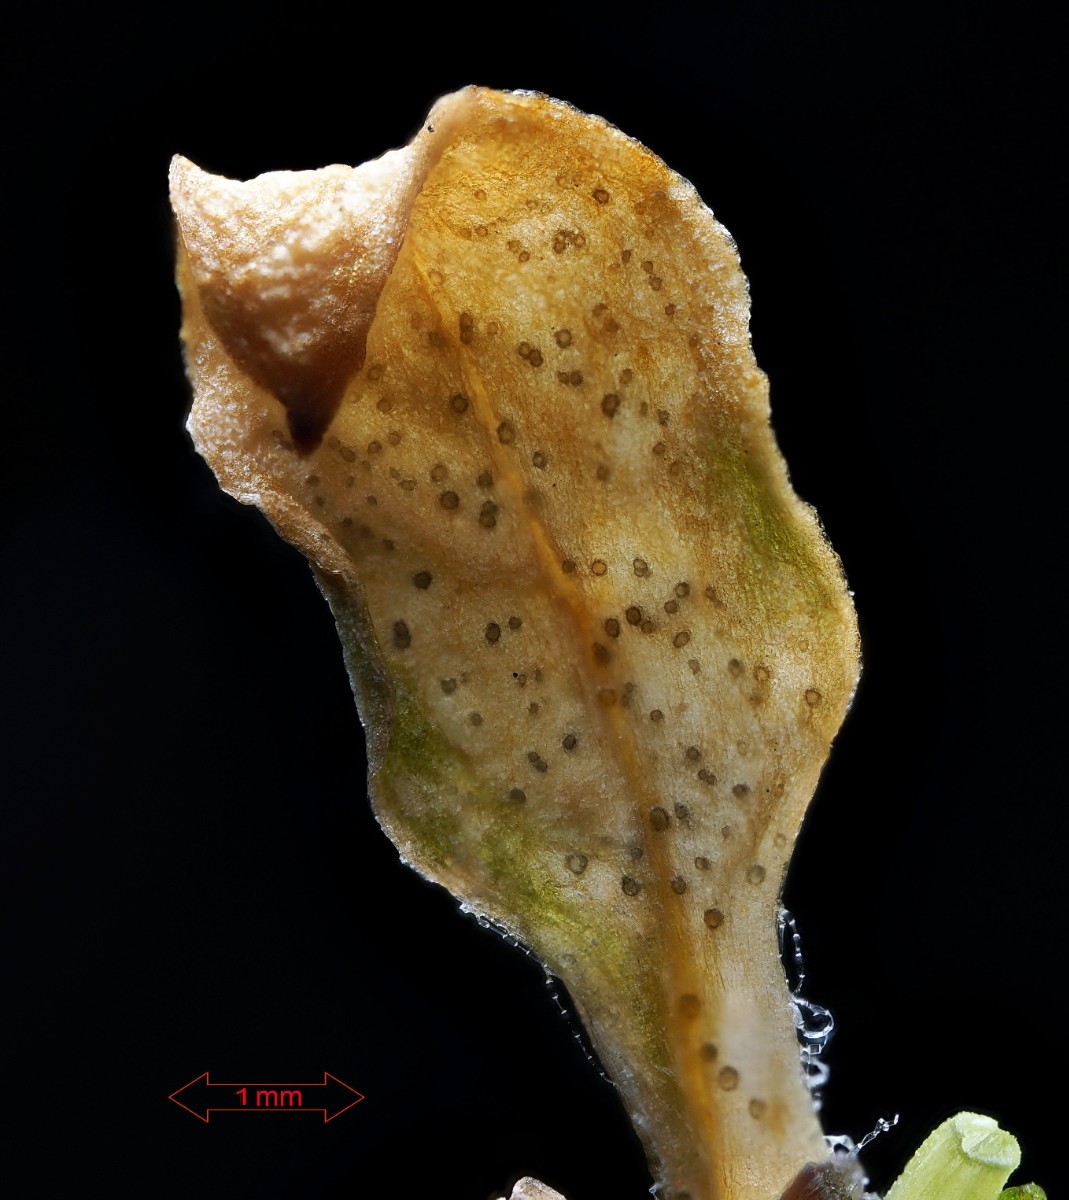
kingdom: Fungi
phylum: Ascomycota
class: Dothideomycetes
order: Mycosphaerellales
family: Mycosphaerellaceae
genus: Septoria
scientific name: Septoria stellariae
